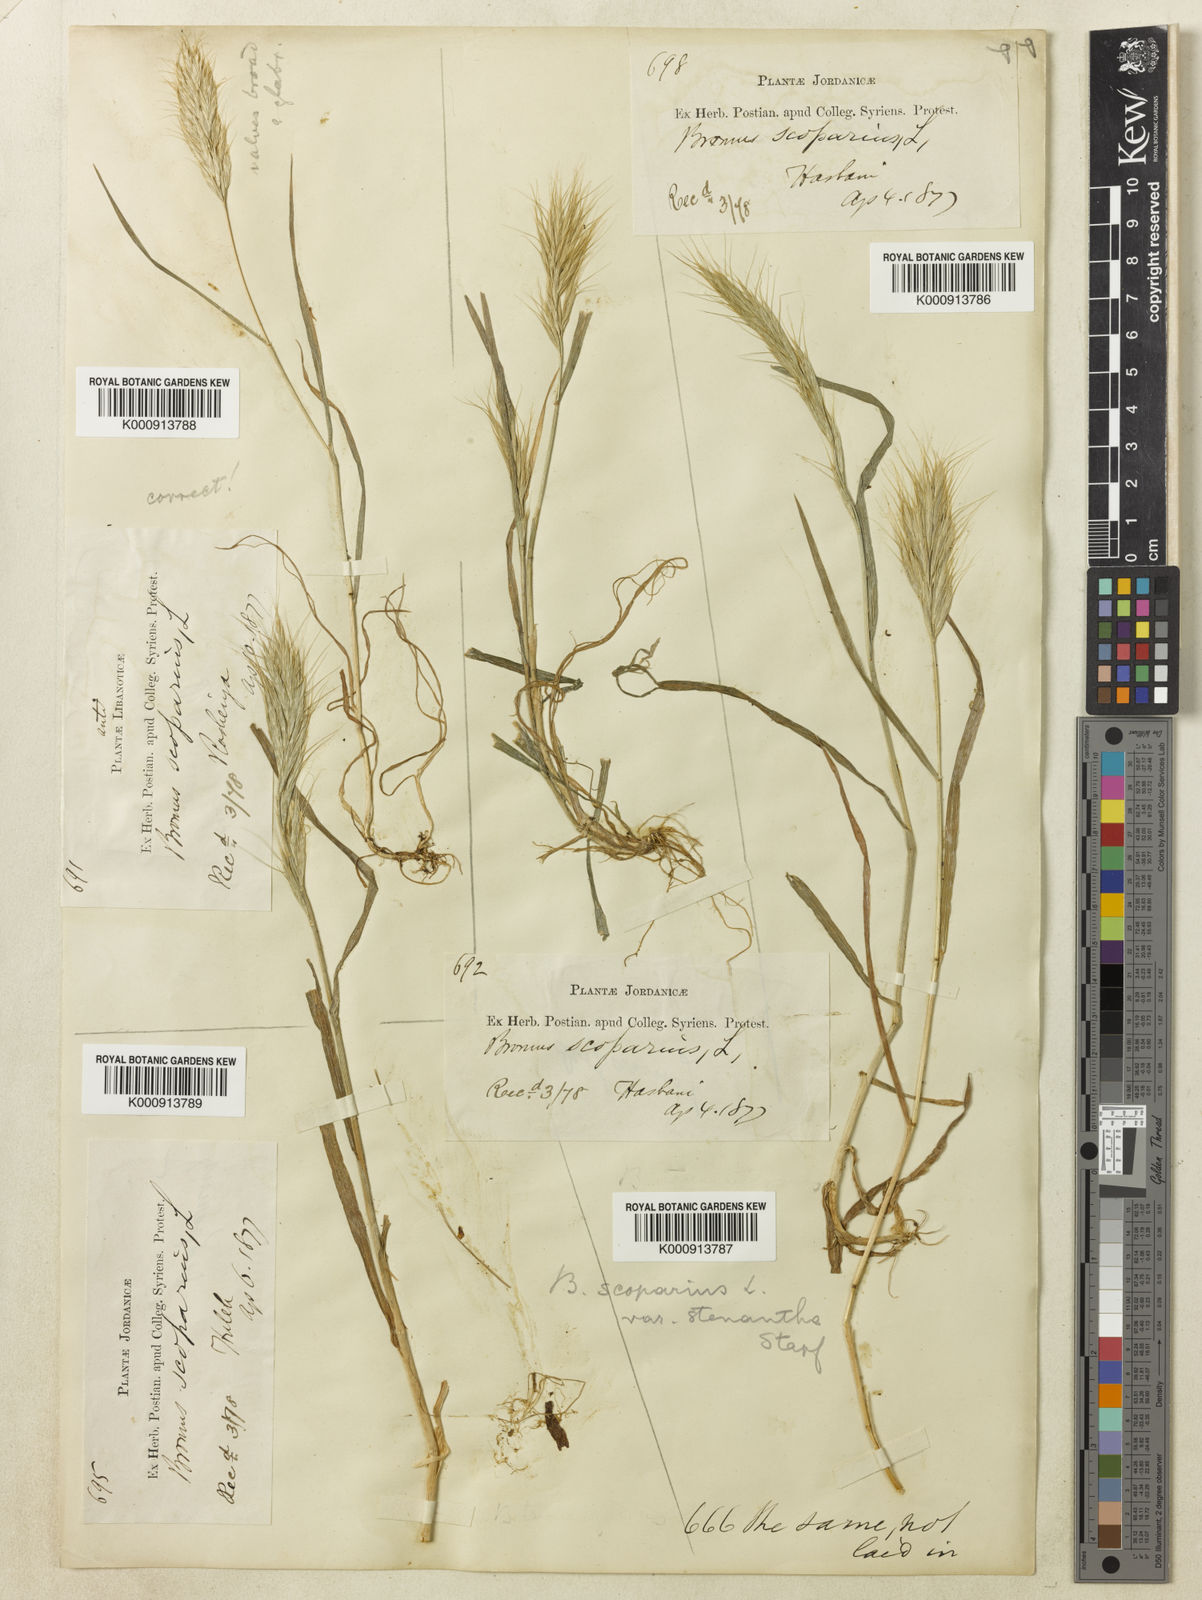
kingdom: Plantae
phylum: Tracheophyta
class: Liliopsida
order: Poales
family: Poaceae
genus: Bromus
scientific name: Bromus scoparius
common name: Broom brome
